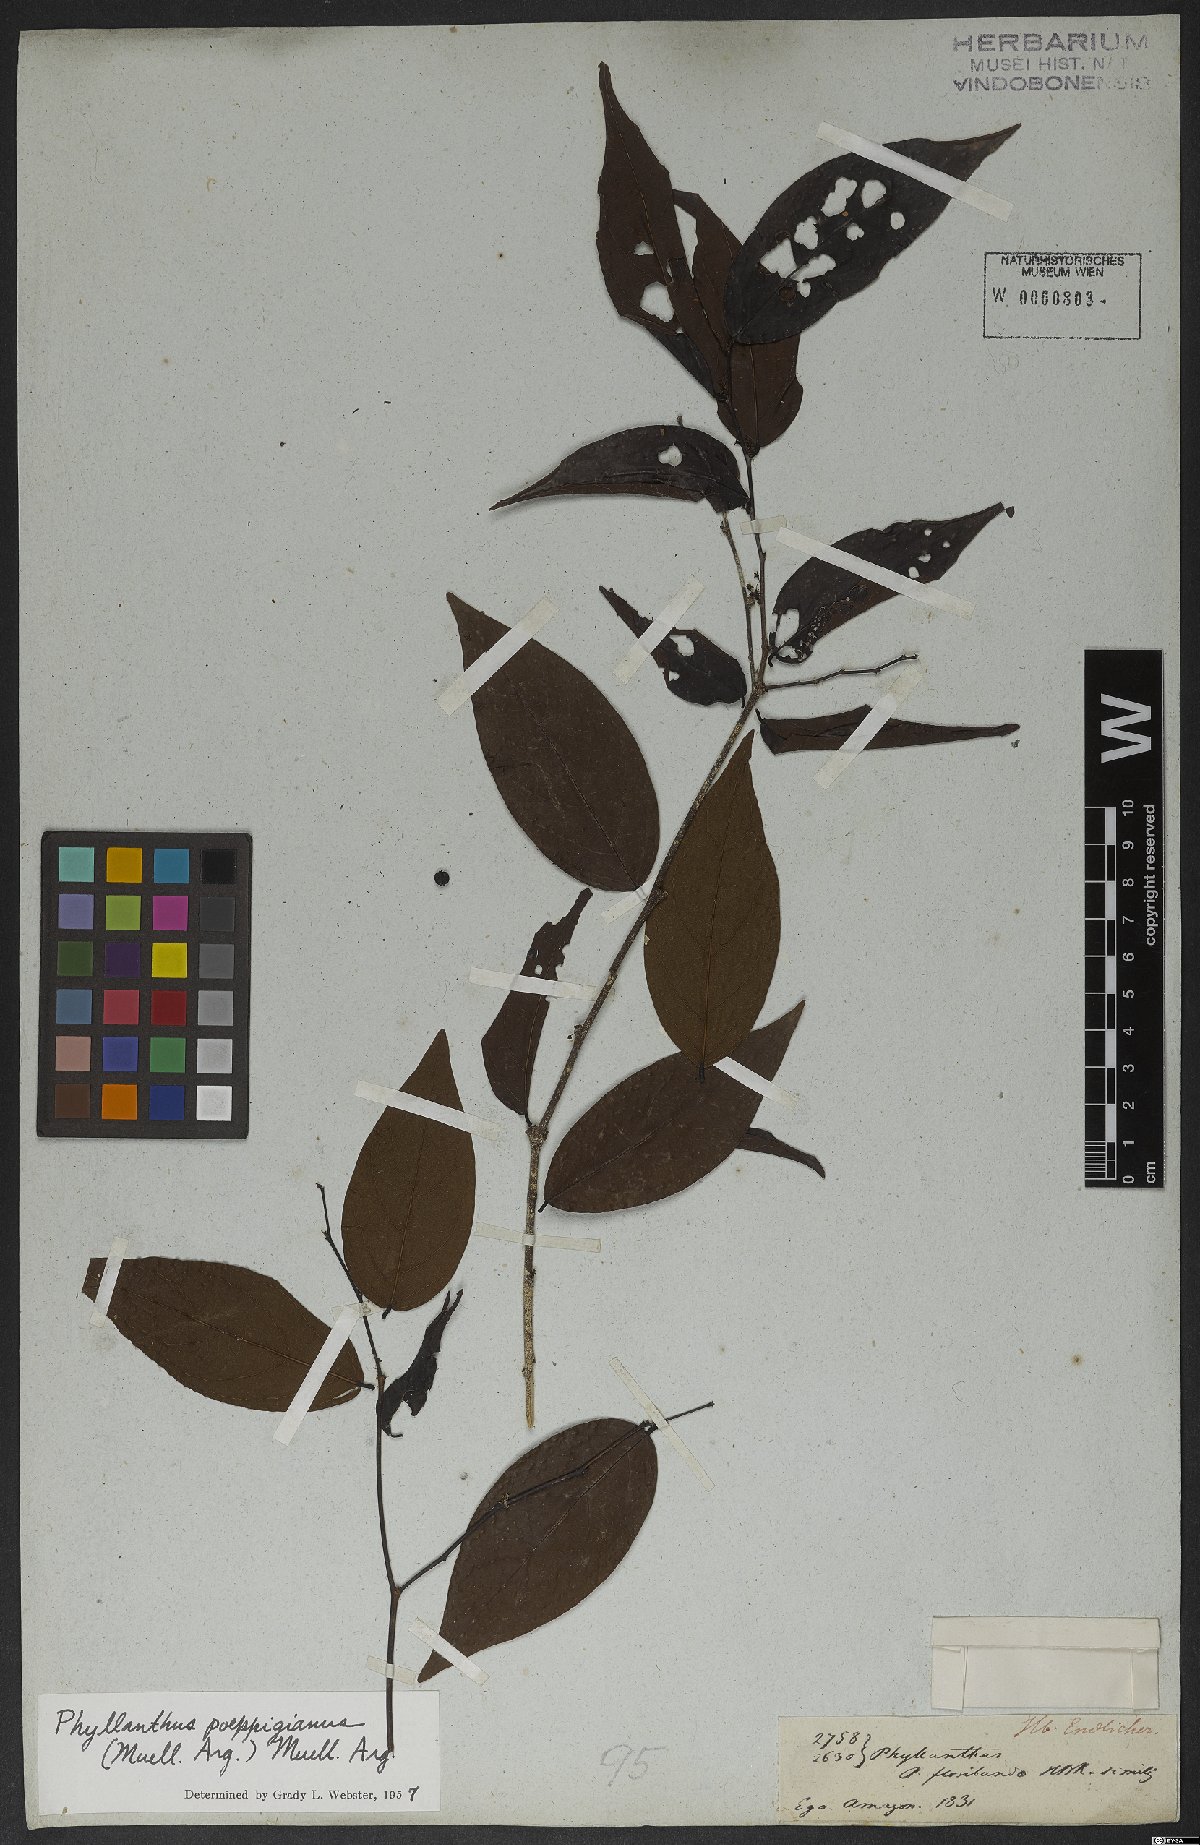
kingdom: Plantae
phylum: Tracheophyta
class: Magnoliopsida
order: Malpighiales
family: Phyllanthaceae
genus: Phyllanthus
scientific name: Phyllanthus poeppigianus
